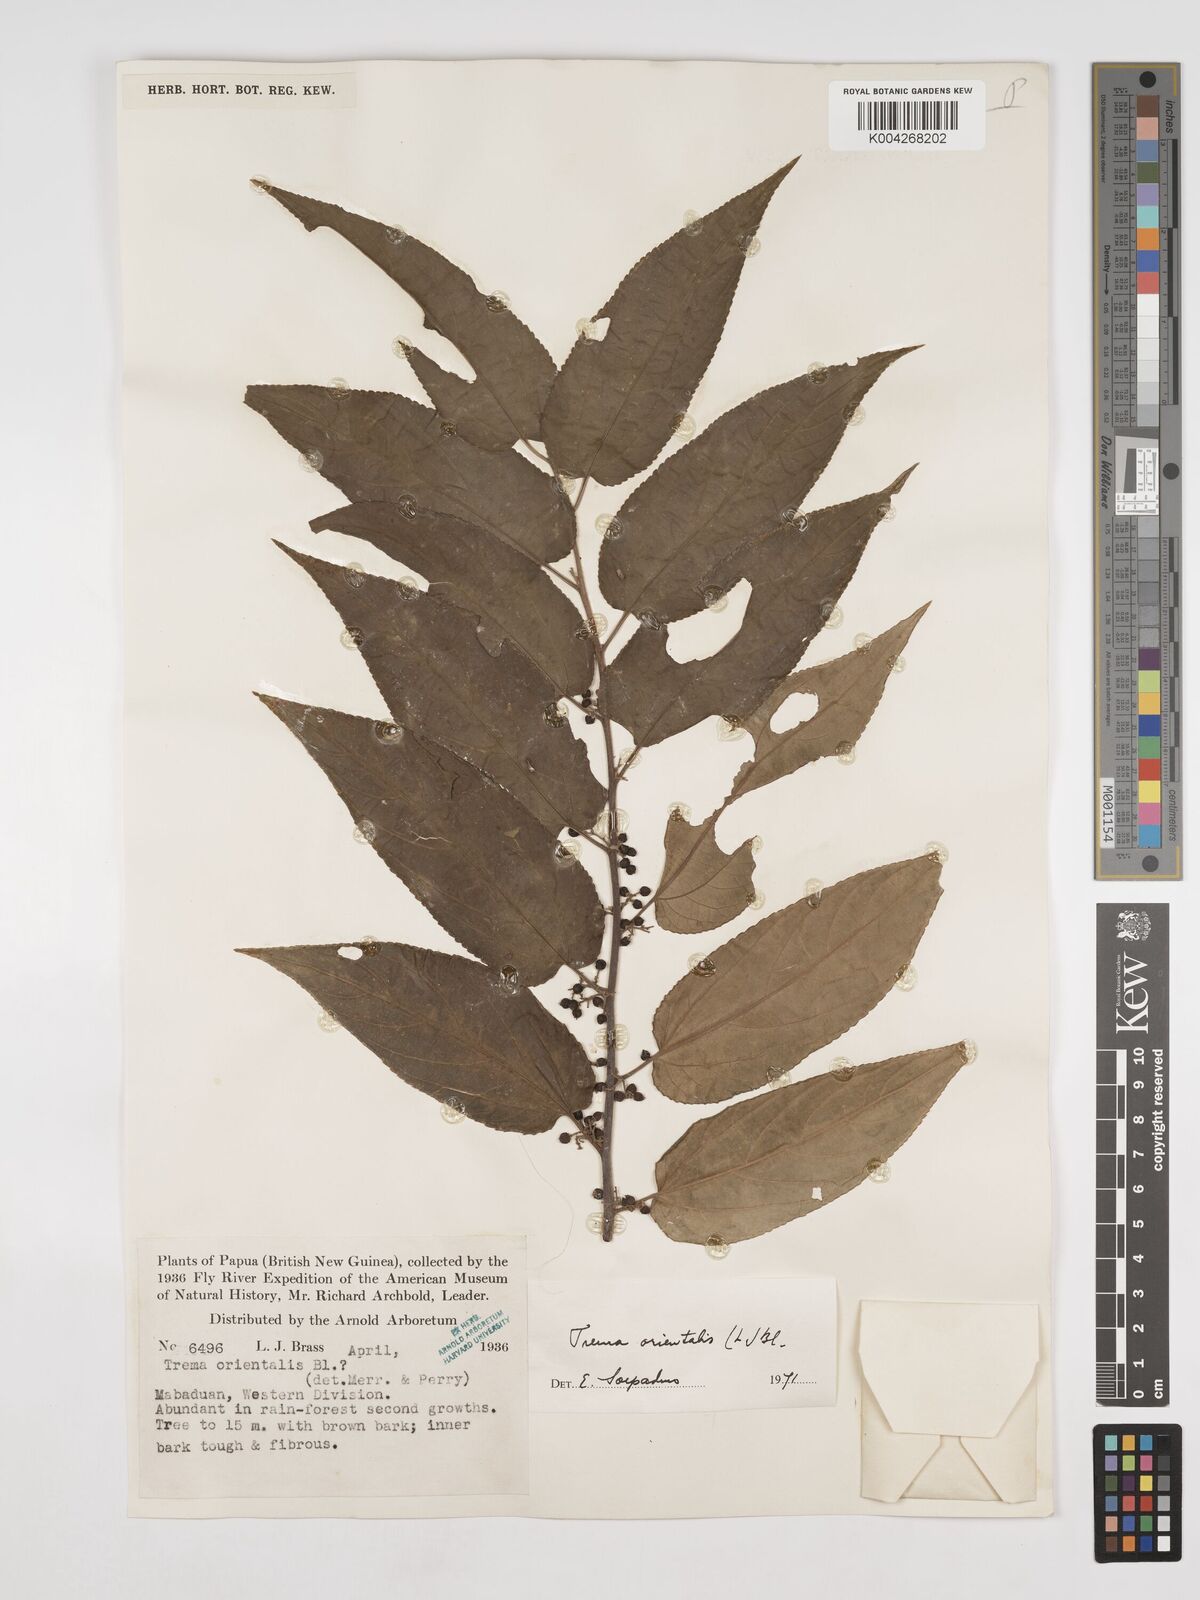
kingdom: Plantae
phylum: Tracheophyta
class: Magnoliopsida
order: Rosales
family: Cannabaceae
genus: Trema
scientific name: Trema orientale
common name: Indian charcoal tree
